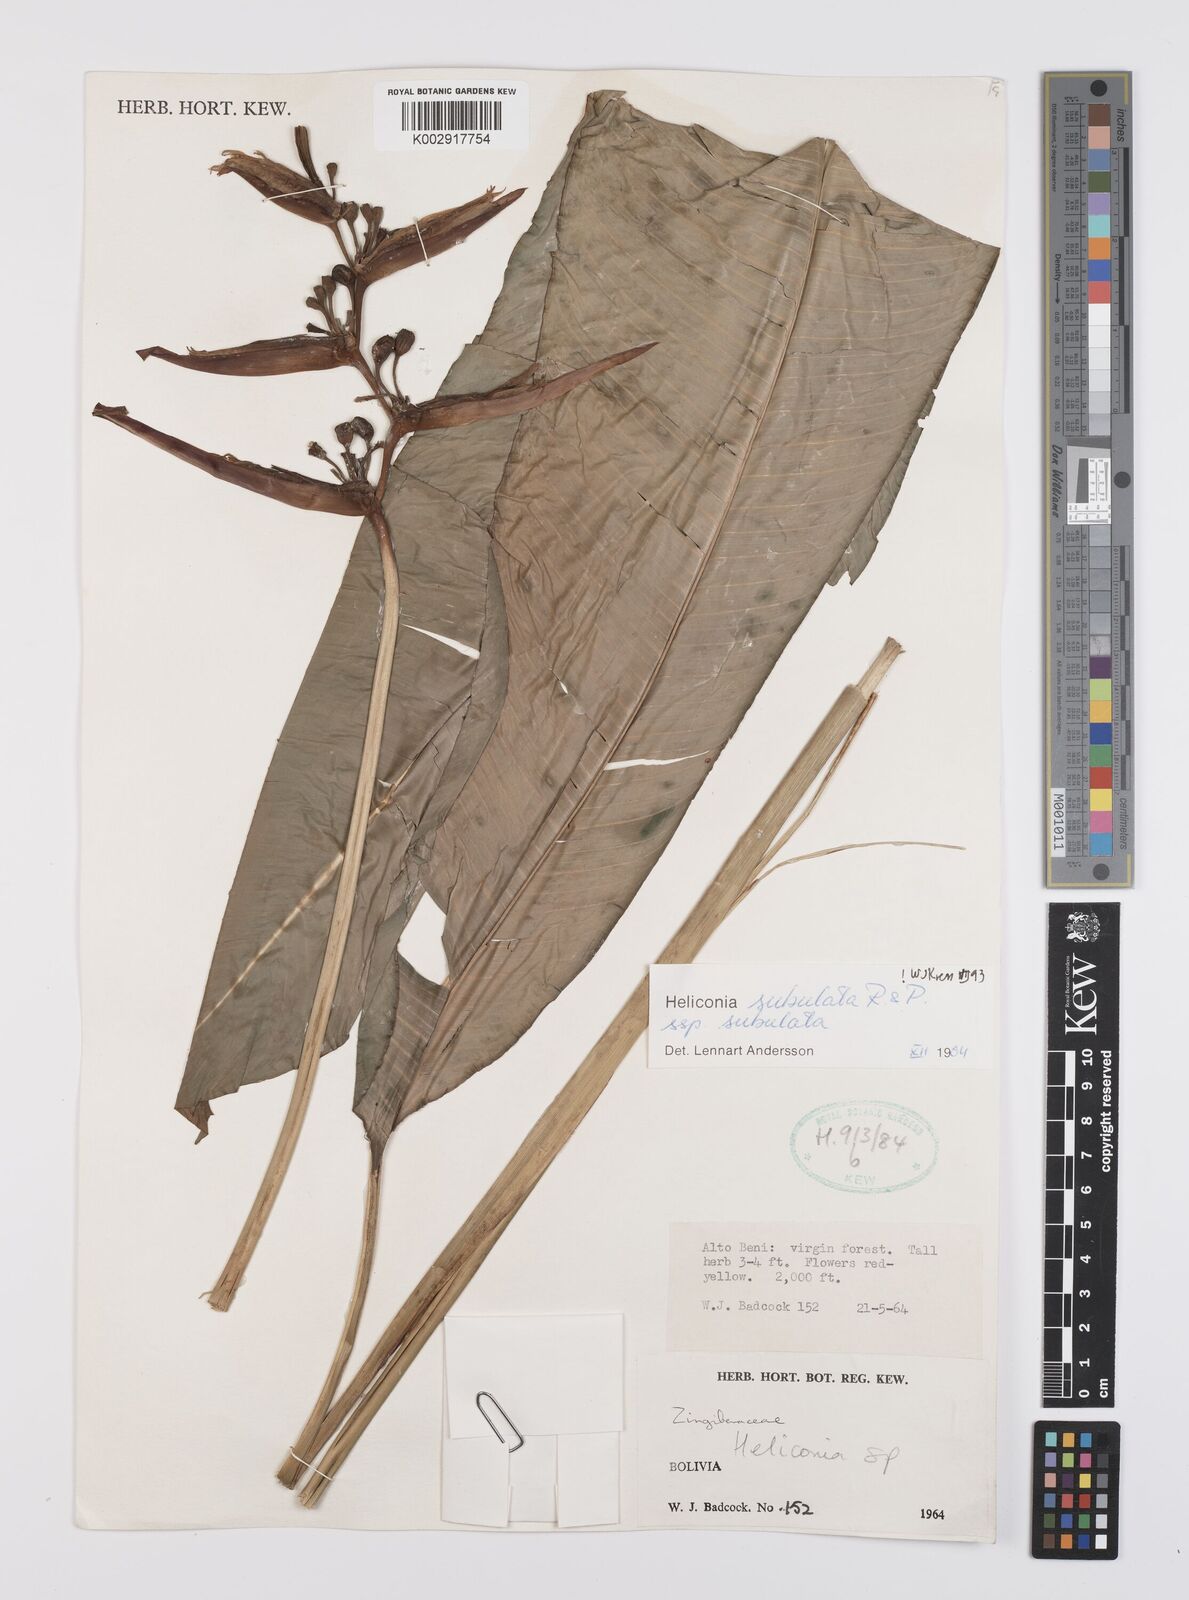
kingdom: Plantae
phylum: Tracheophyta
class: Liliopsida
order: Zingiberales
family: Heliconiaceae
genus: Heliconia
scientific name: Heliconia subulata
